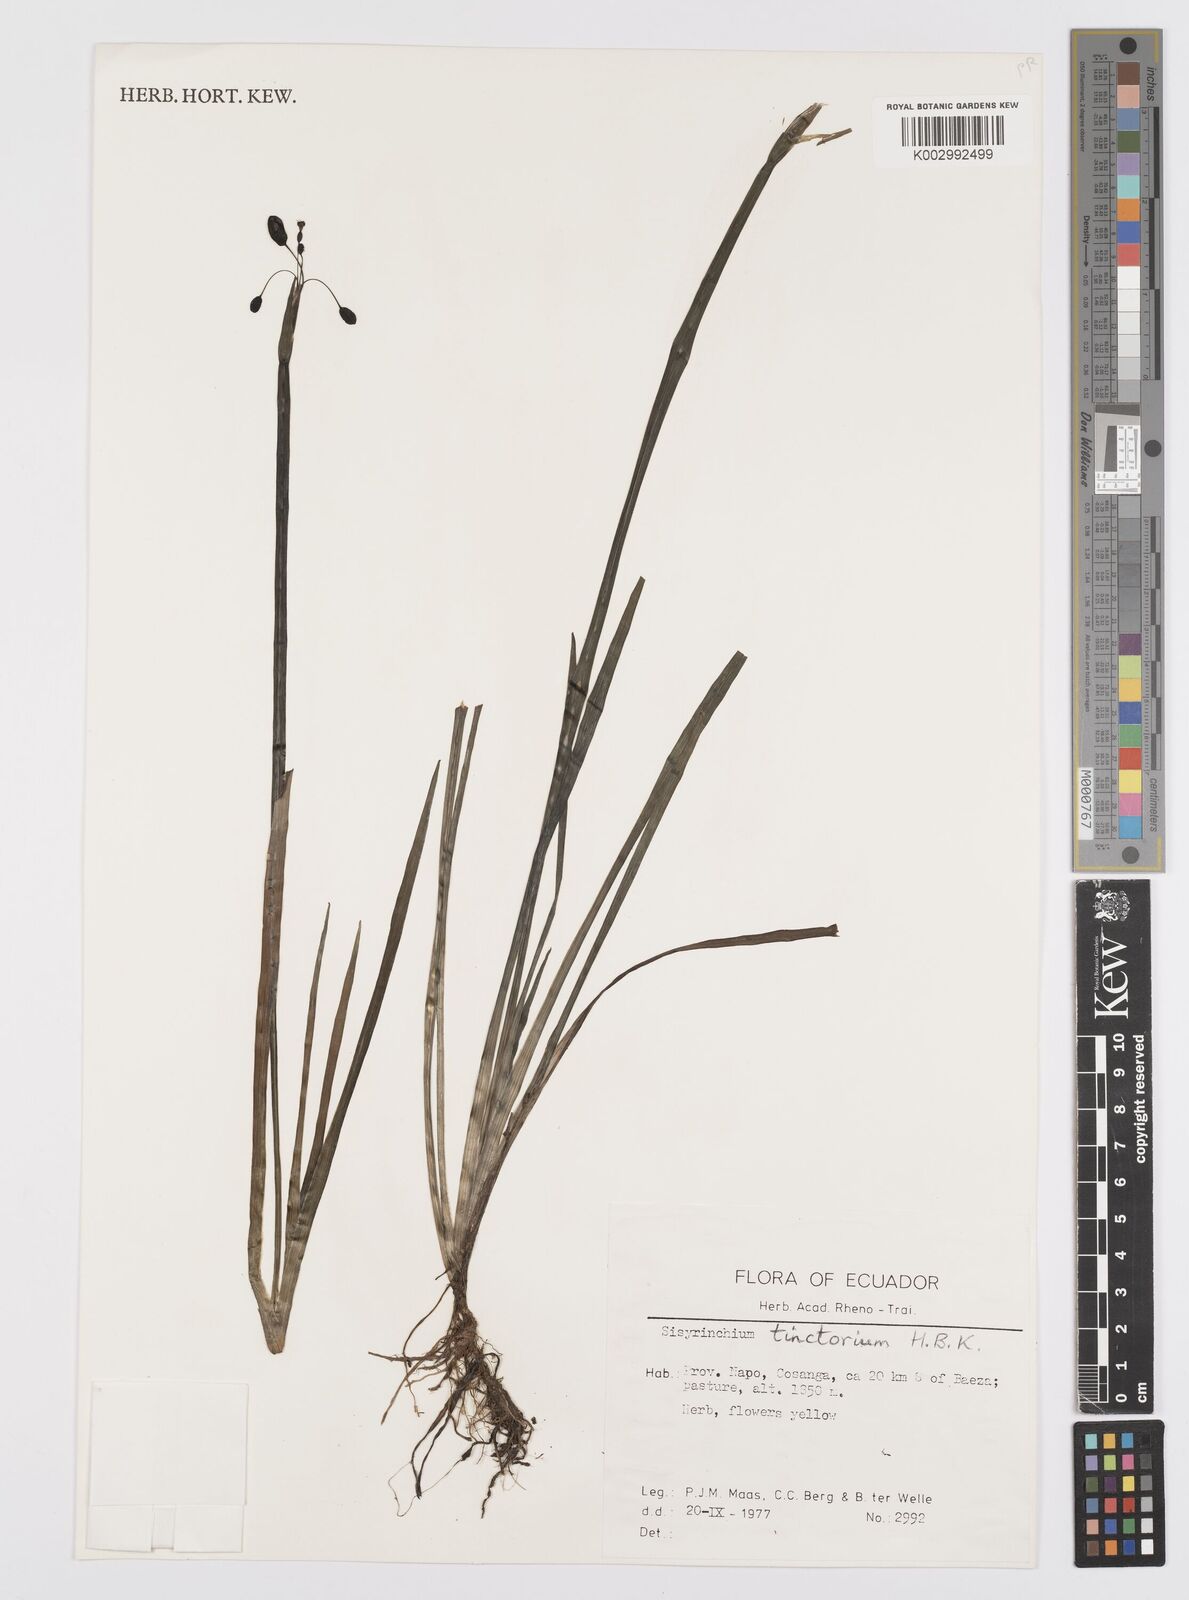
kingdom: Plantae
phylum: Tracheophyta
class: Liliopsida
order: Asparagales
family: Iridaceae
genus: Sisyrinchium
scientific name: Sisyrinchium tinctorium
